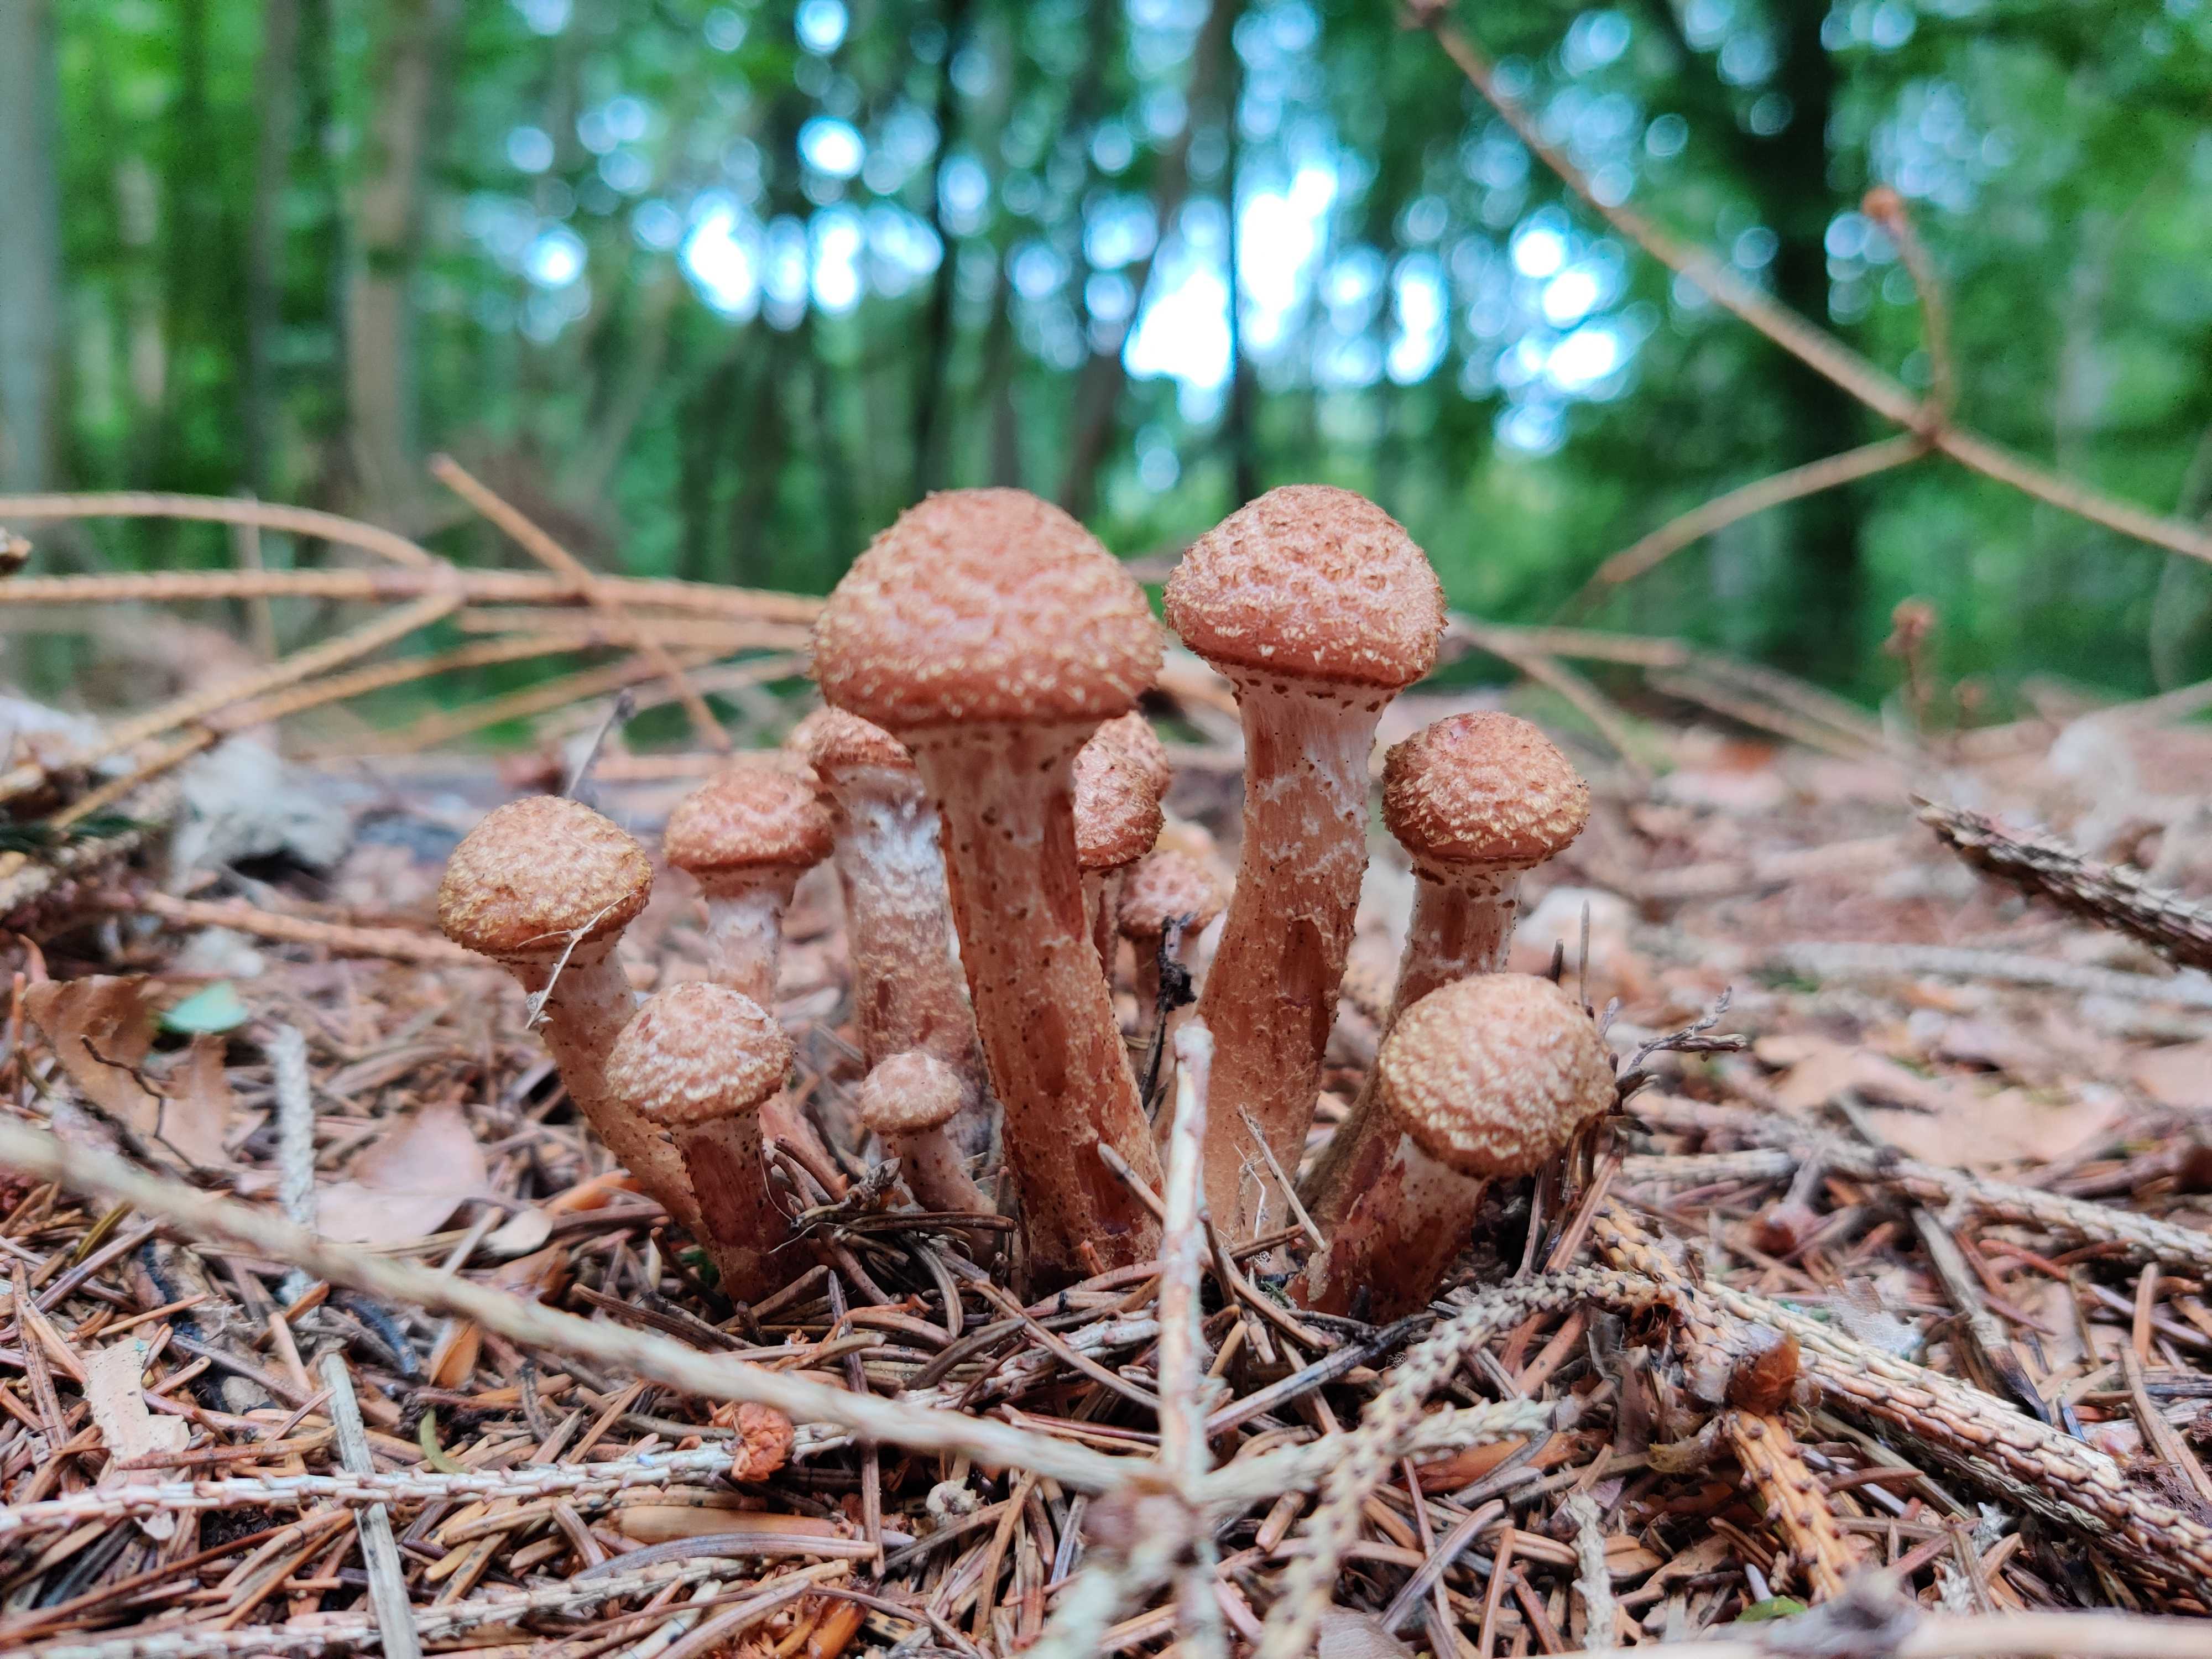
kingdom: Fungi
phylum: Basidiomycota
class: Agaricomycetes
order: Agaricales
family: Physalacriaceae
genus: Armillaria
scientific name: Armillaria ostoyae
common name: mørk honningsvamp
